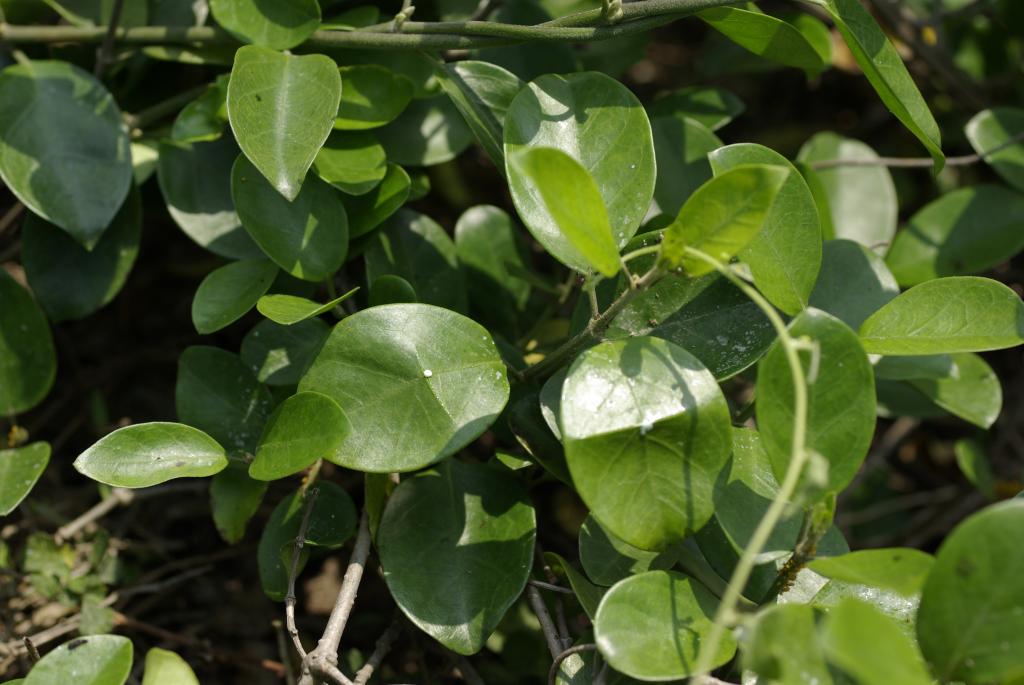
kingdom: Plantae
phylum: Tracheophyta
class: Magnoliopsida
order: Gentianales
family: Apocynaceae
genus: Gymnema
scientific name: Gymnema sylvestre
